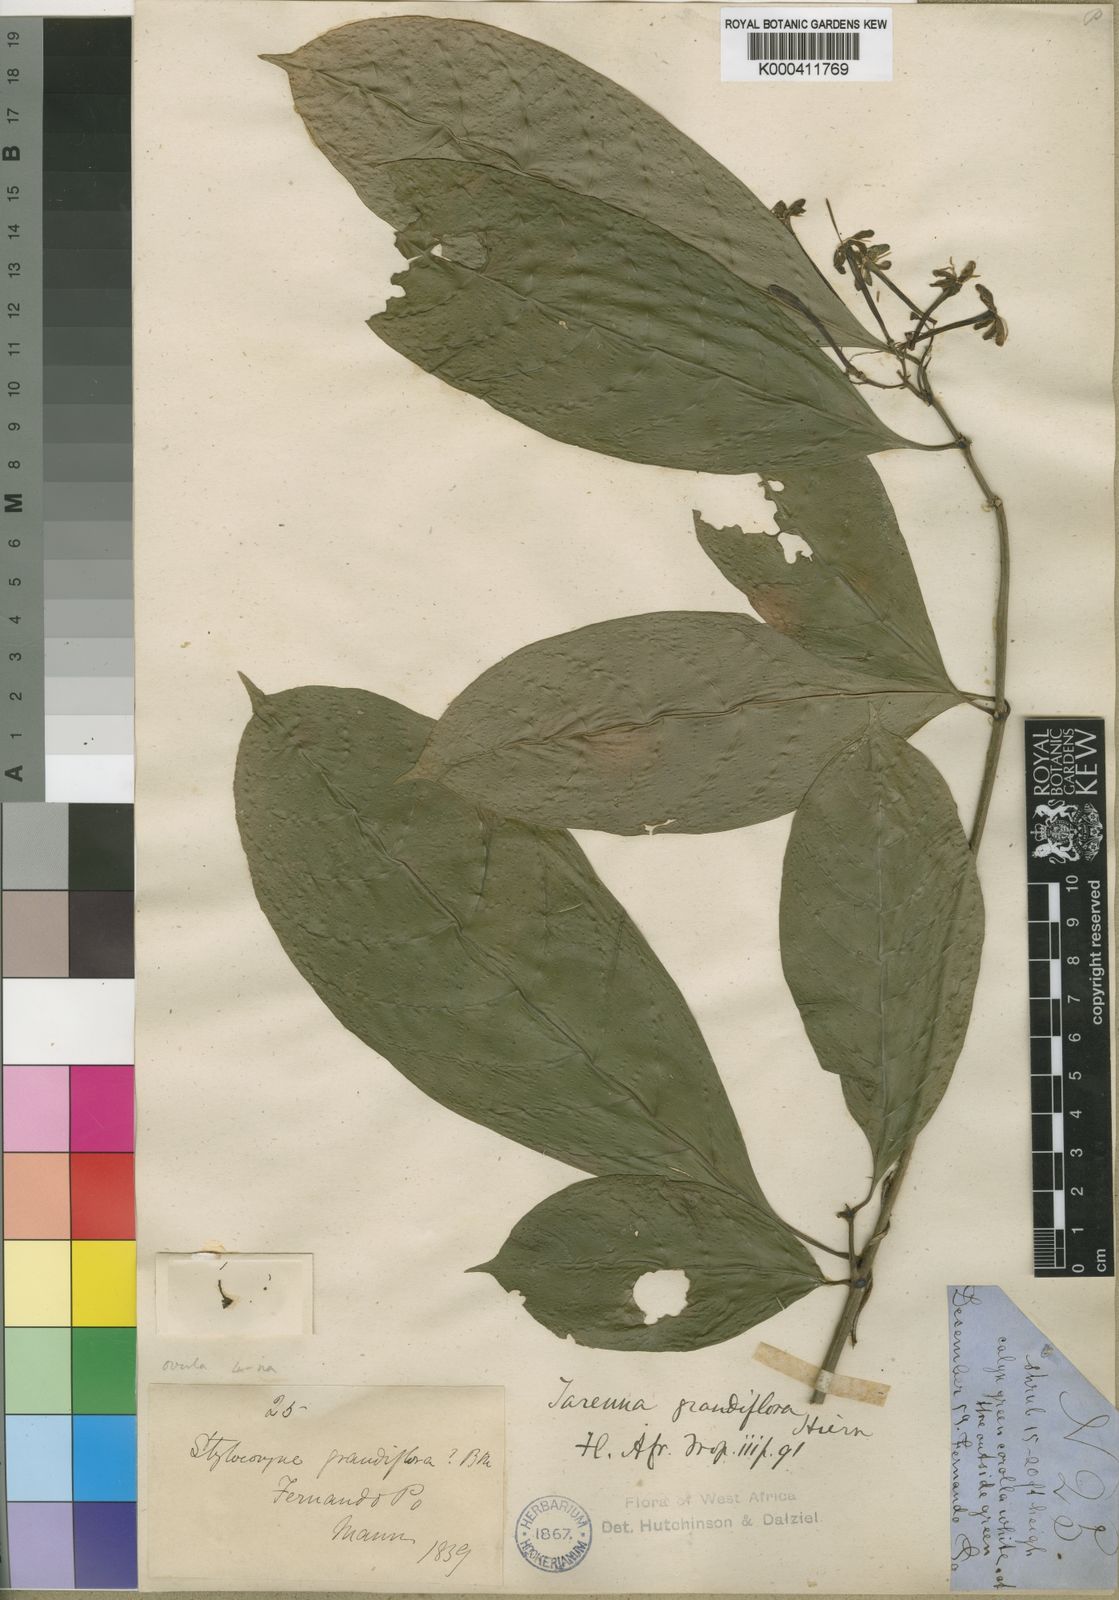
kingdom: Plantae
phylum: Tracheophyta
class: Magnoliopsida
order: Gentianales
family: Rubiaceae
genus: Tarenna
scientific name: Tarenna grandiflora
